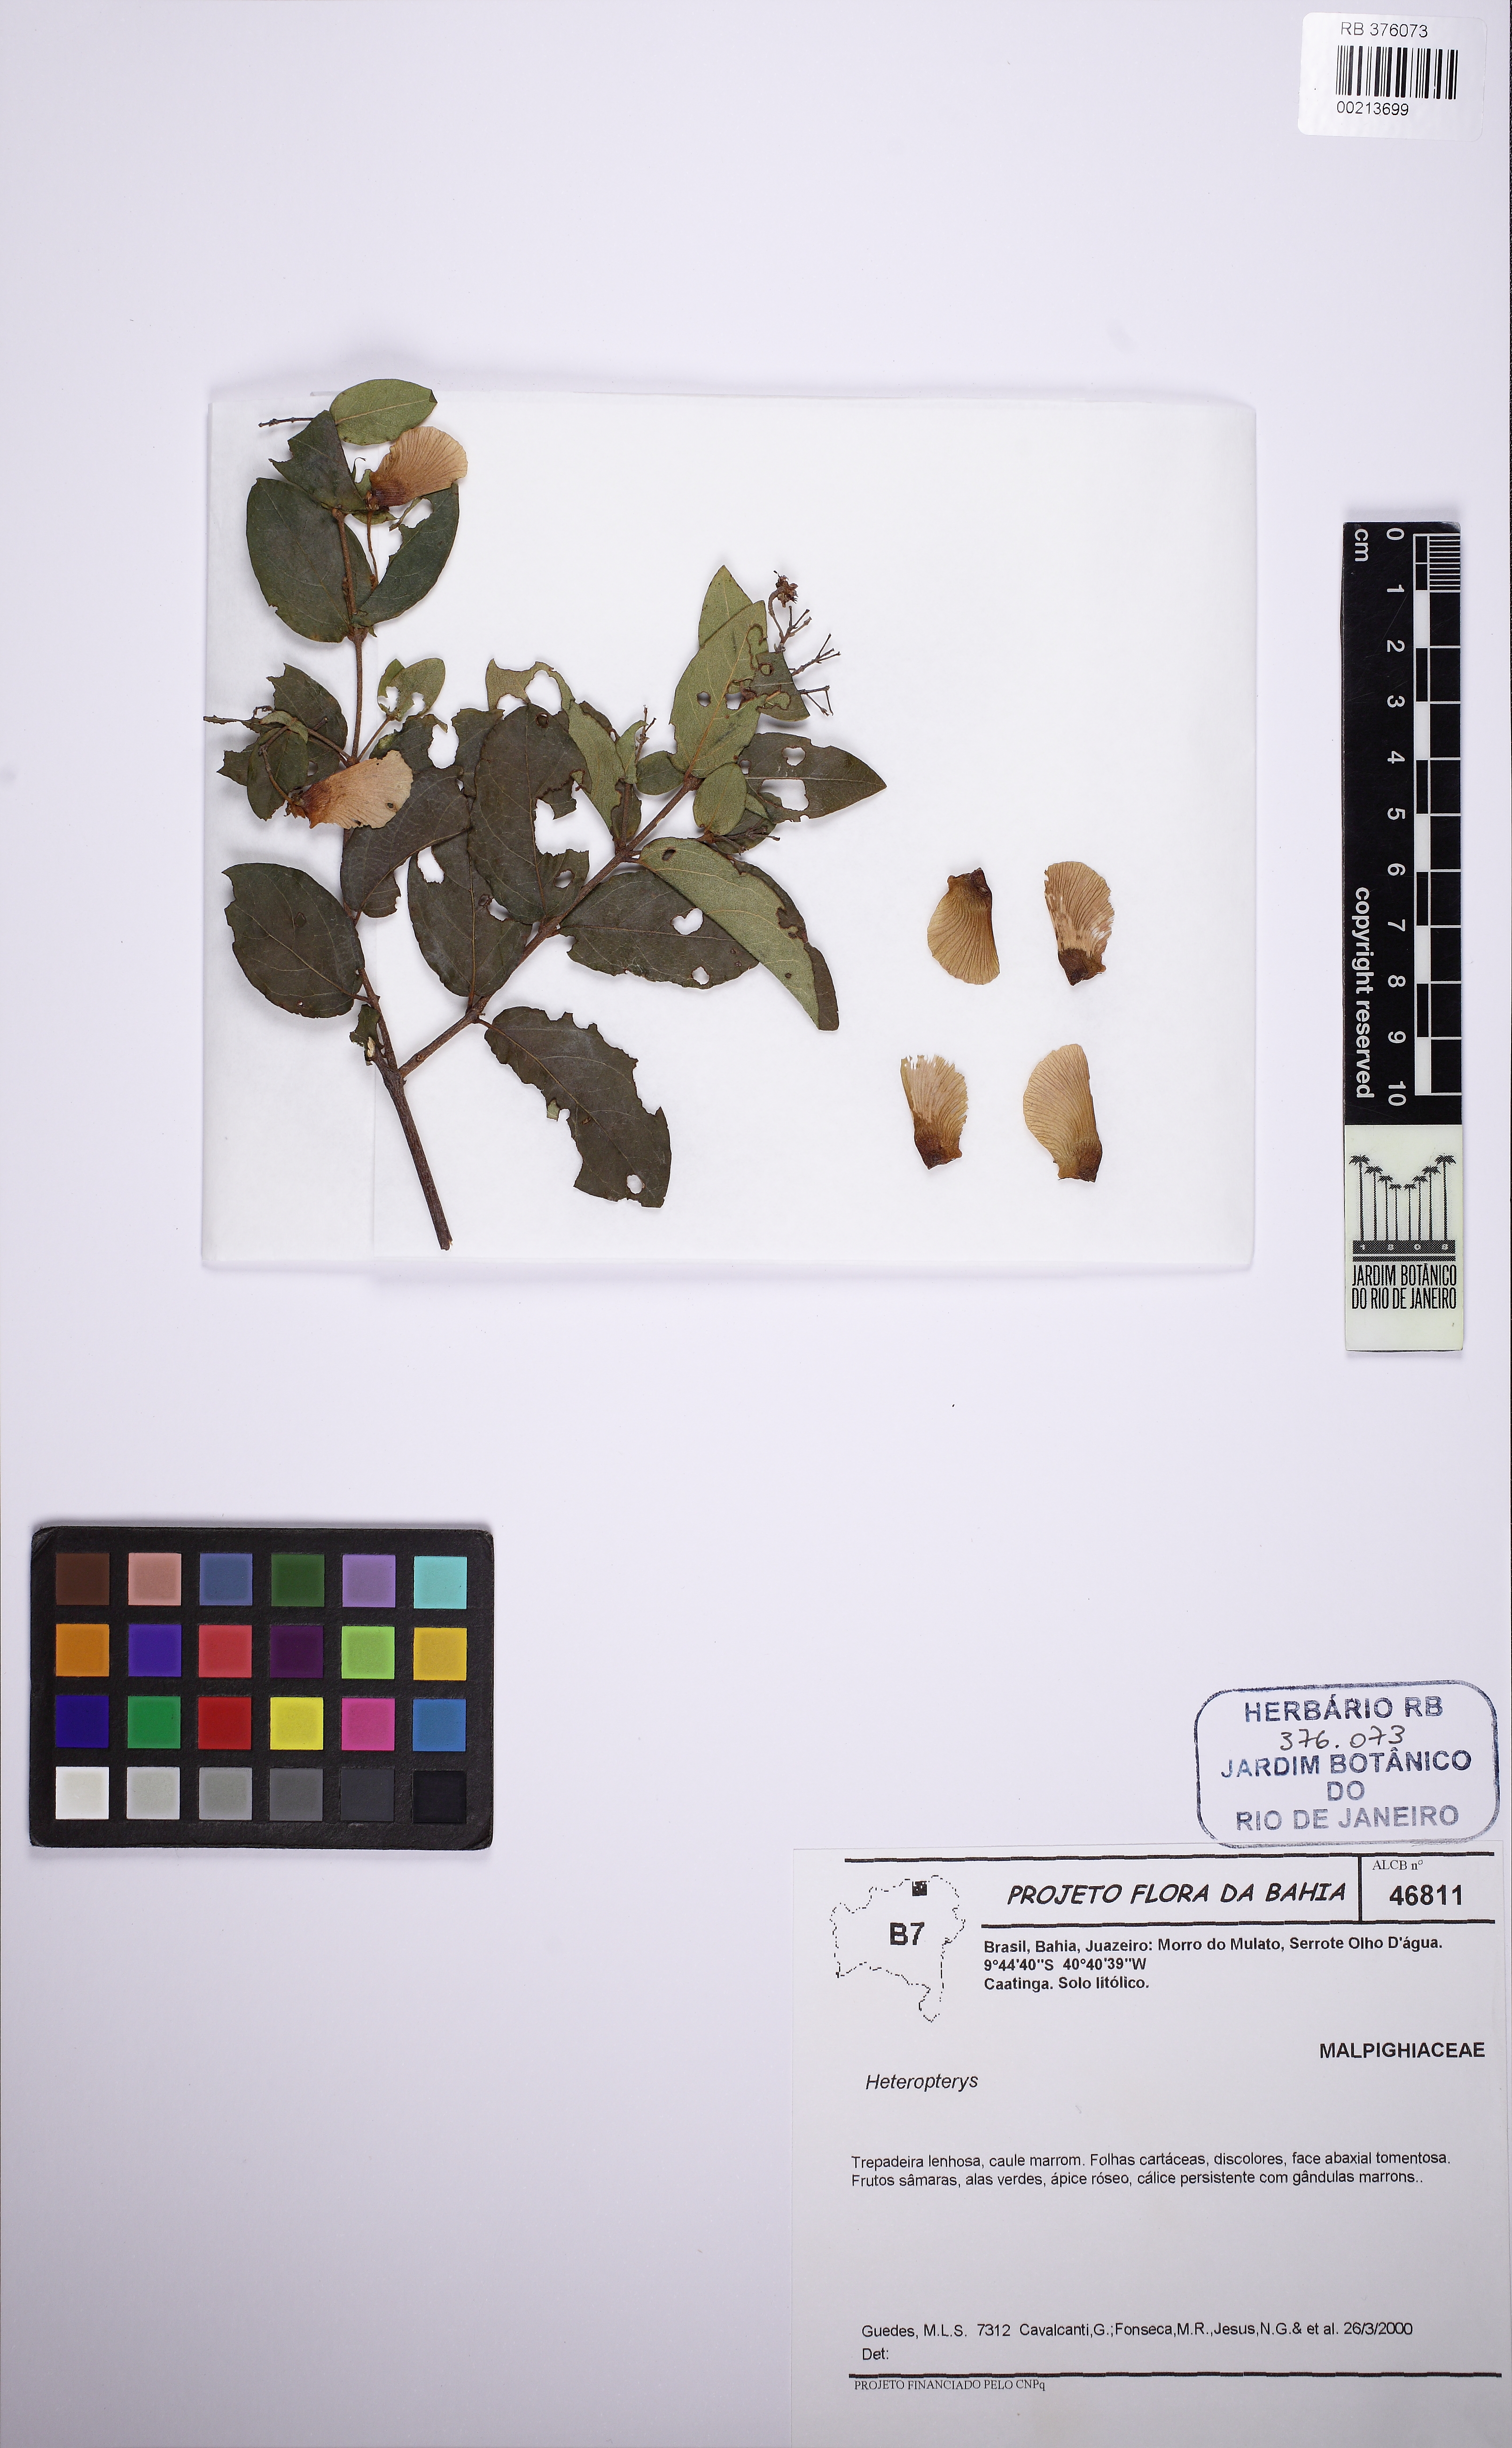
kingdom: Plantae
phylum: Tracheophyta
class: Magnoliopsida
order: Malpighiales
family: Malpighiaceae
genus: Heteropterys
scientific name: Heteropterys
